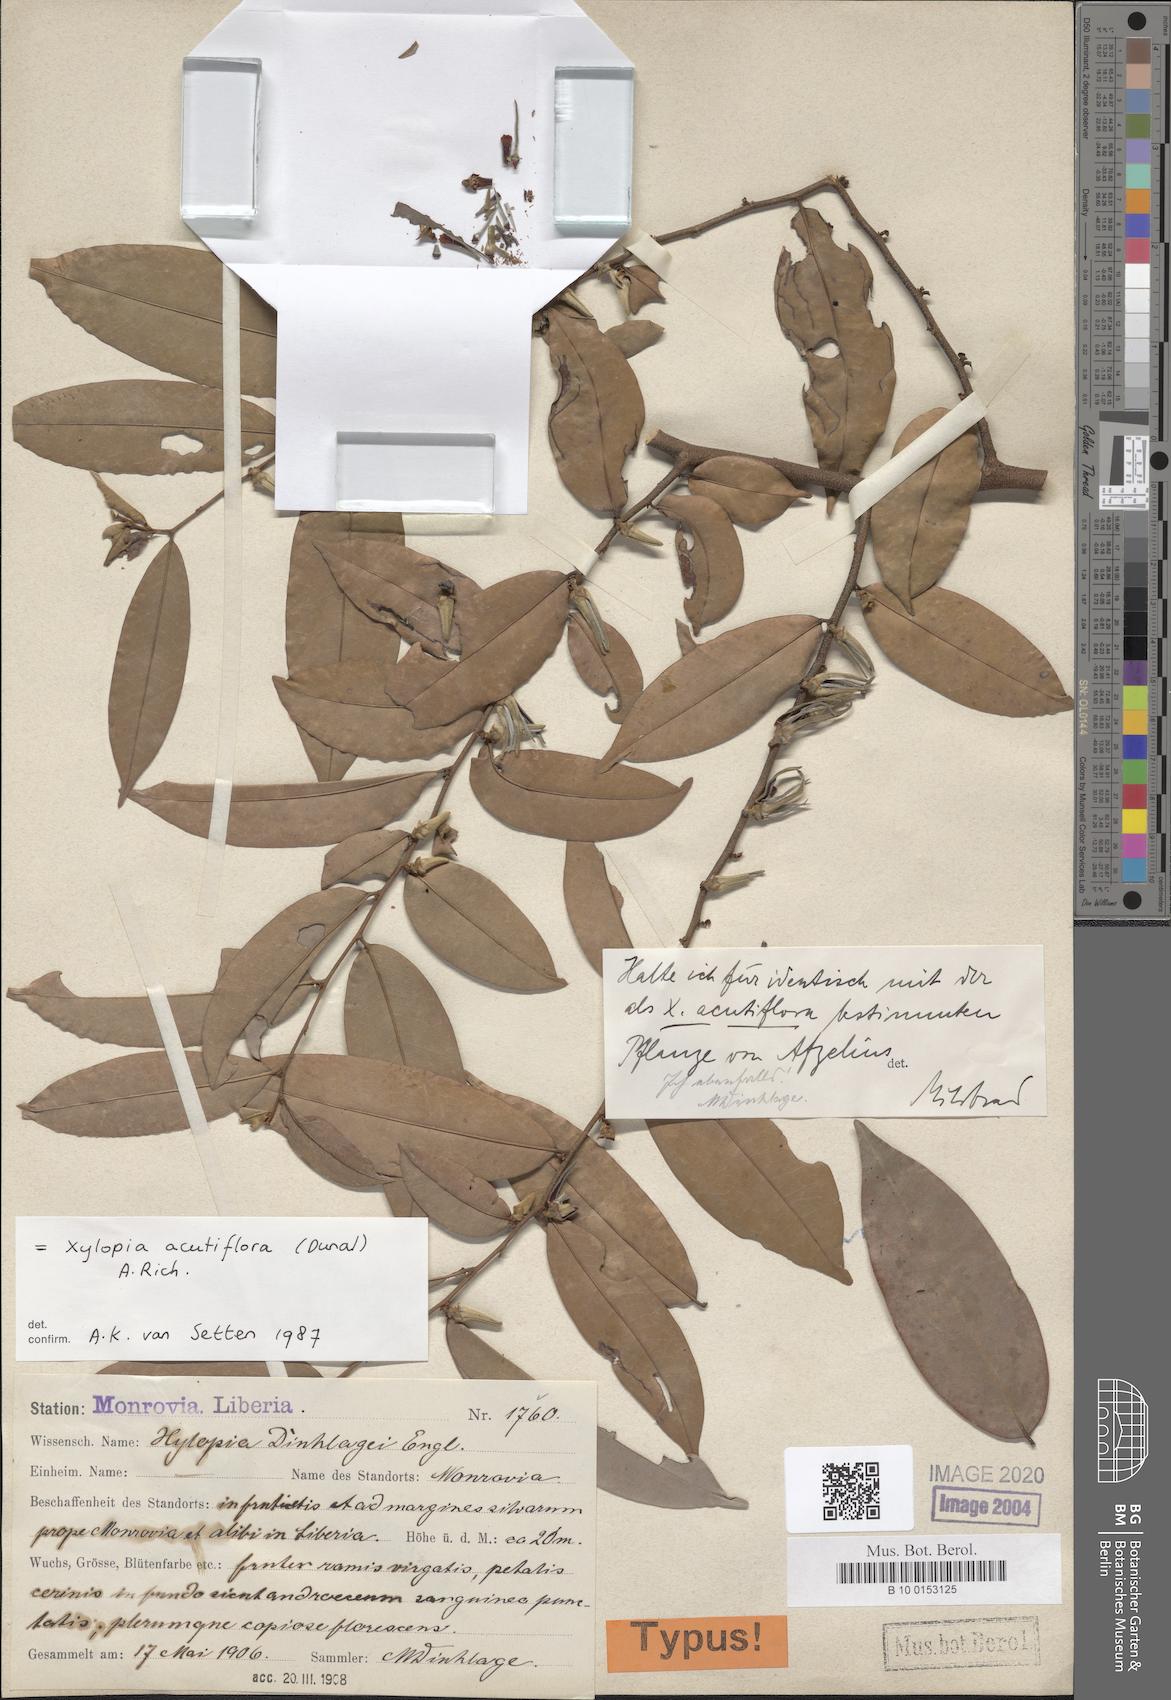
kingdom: Plantae
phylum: Tracheophyta
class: Magnoliopsida
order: Magnoliales
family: Annonaceae
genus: Xylopia
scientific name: Xylopia acutiflora
